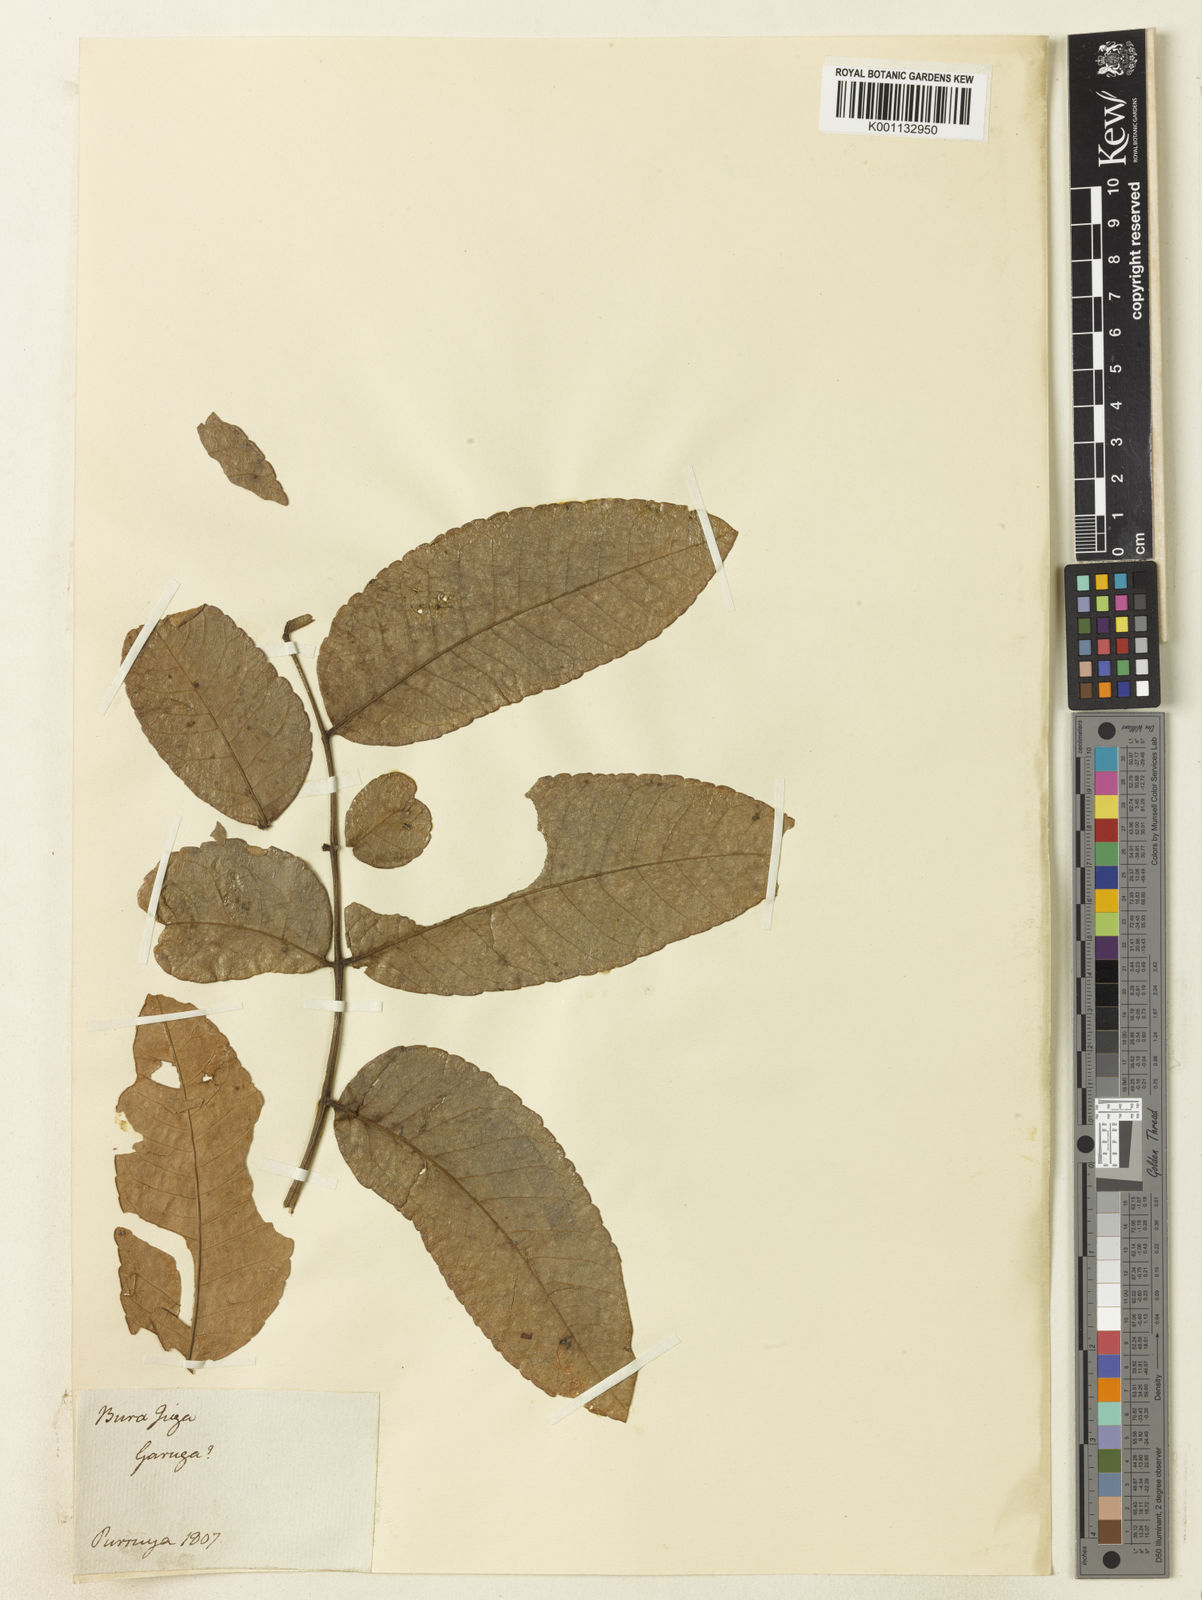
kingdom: Plantae
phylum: Tracheophyta
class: Magnoliopsida
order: Sapindales
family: Burseraceae
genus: Garuga
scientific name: Garuga
